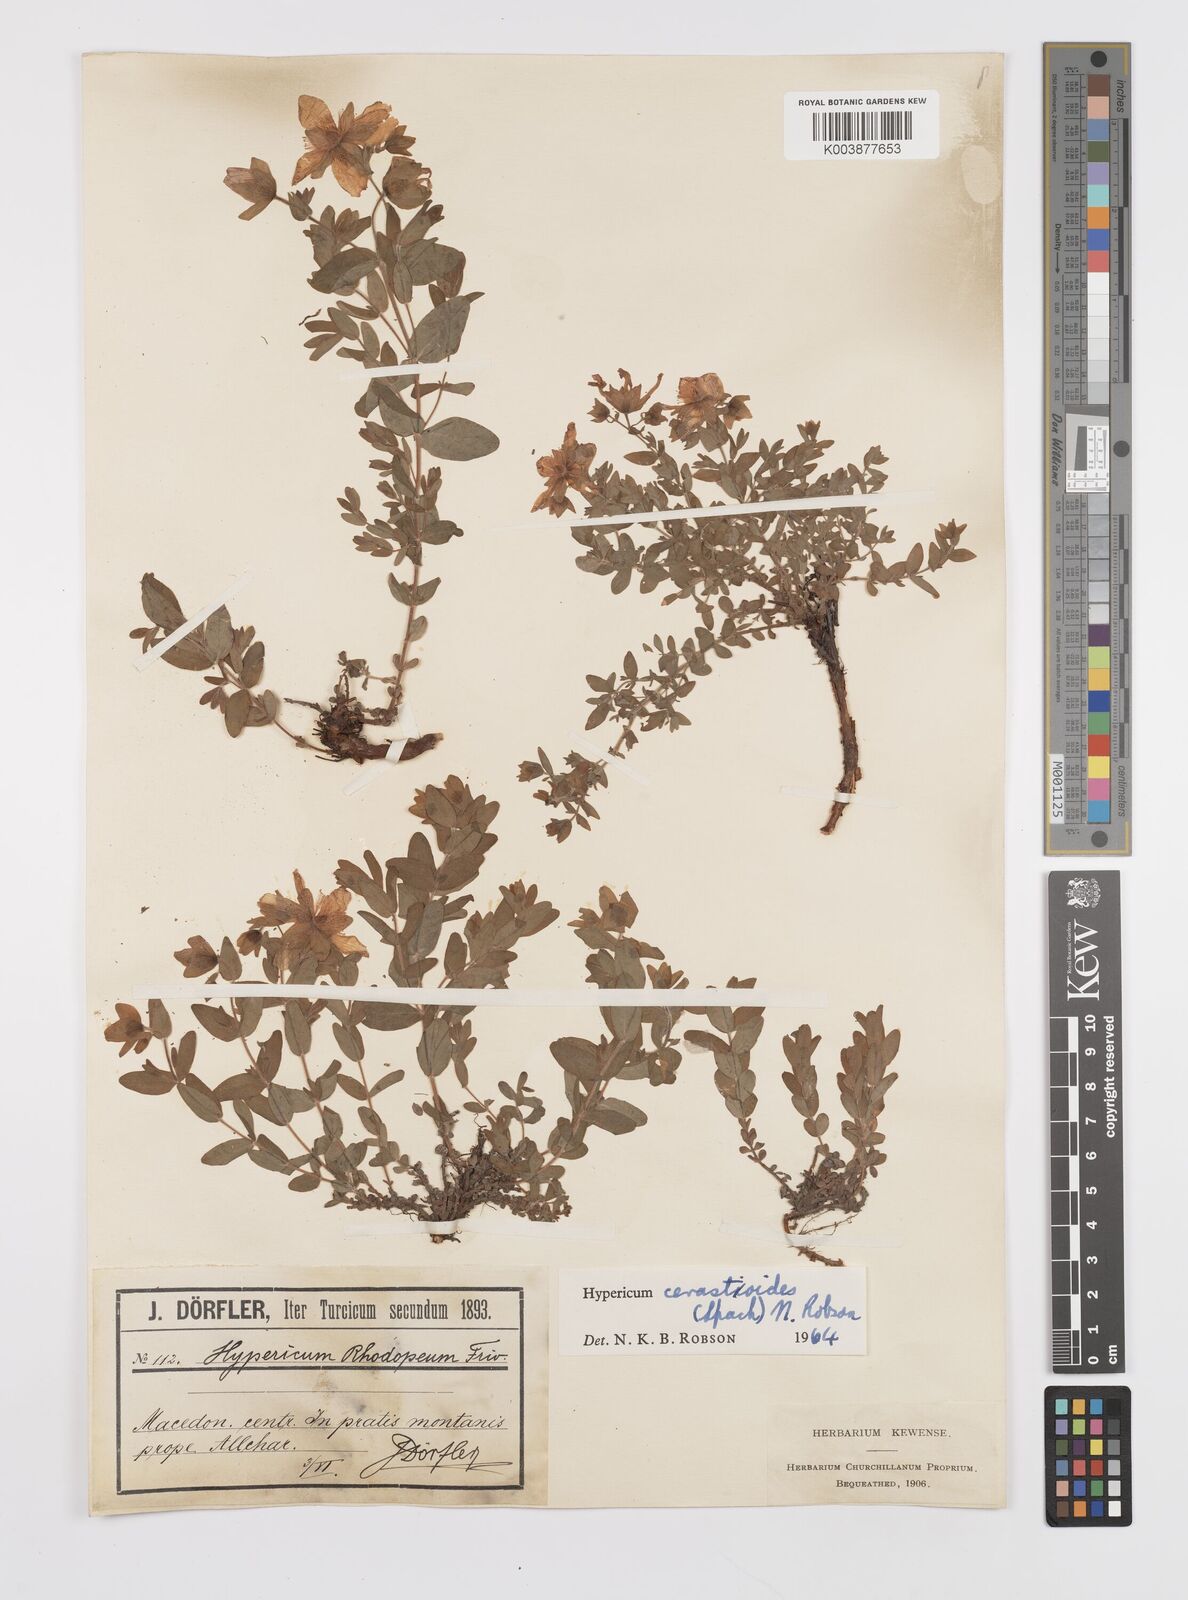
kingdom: Plantae
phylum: Tracheophyta
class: Magnoliopsida
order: Malpighiales
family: Hypericaceae
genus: Hypericum
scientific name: Hypericum cerastoides
